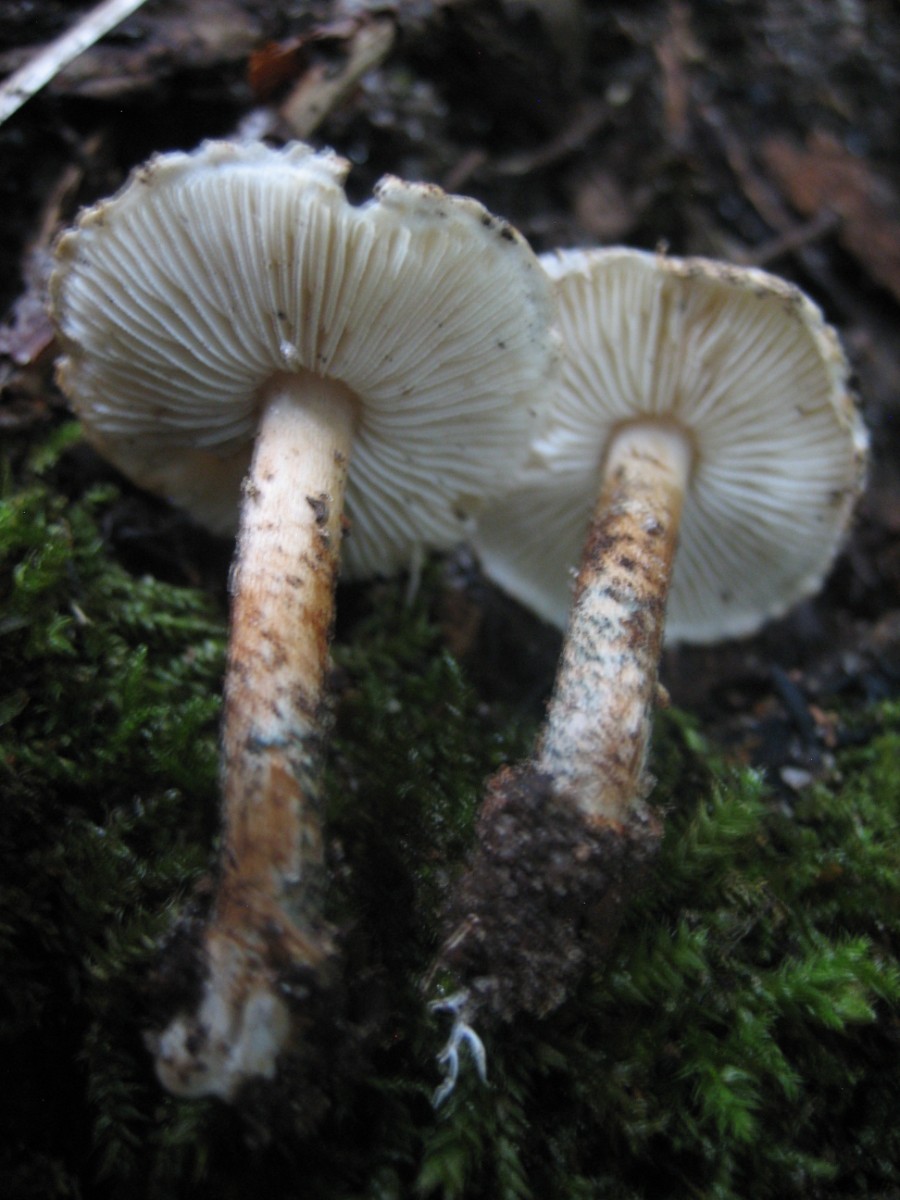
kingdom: Fungi
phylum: Basidiomycota
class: Agaricomycetes
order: Agaricales
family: Agaricaceae
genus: Lepiota
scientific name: Lepiota grangei
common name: grønskællet parasolhat
